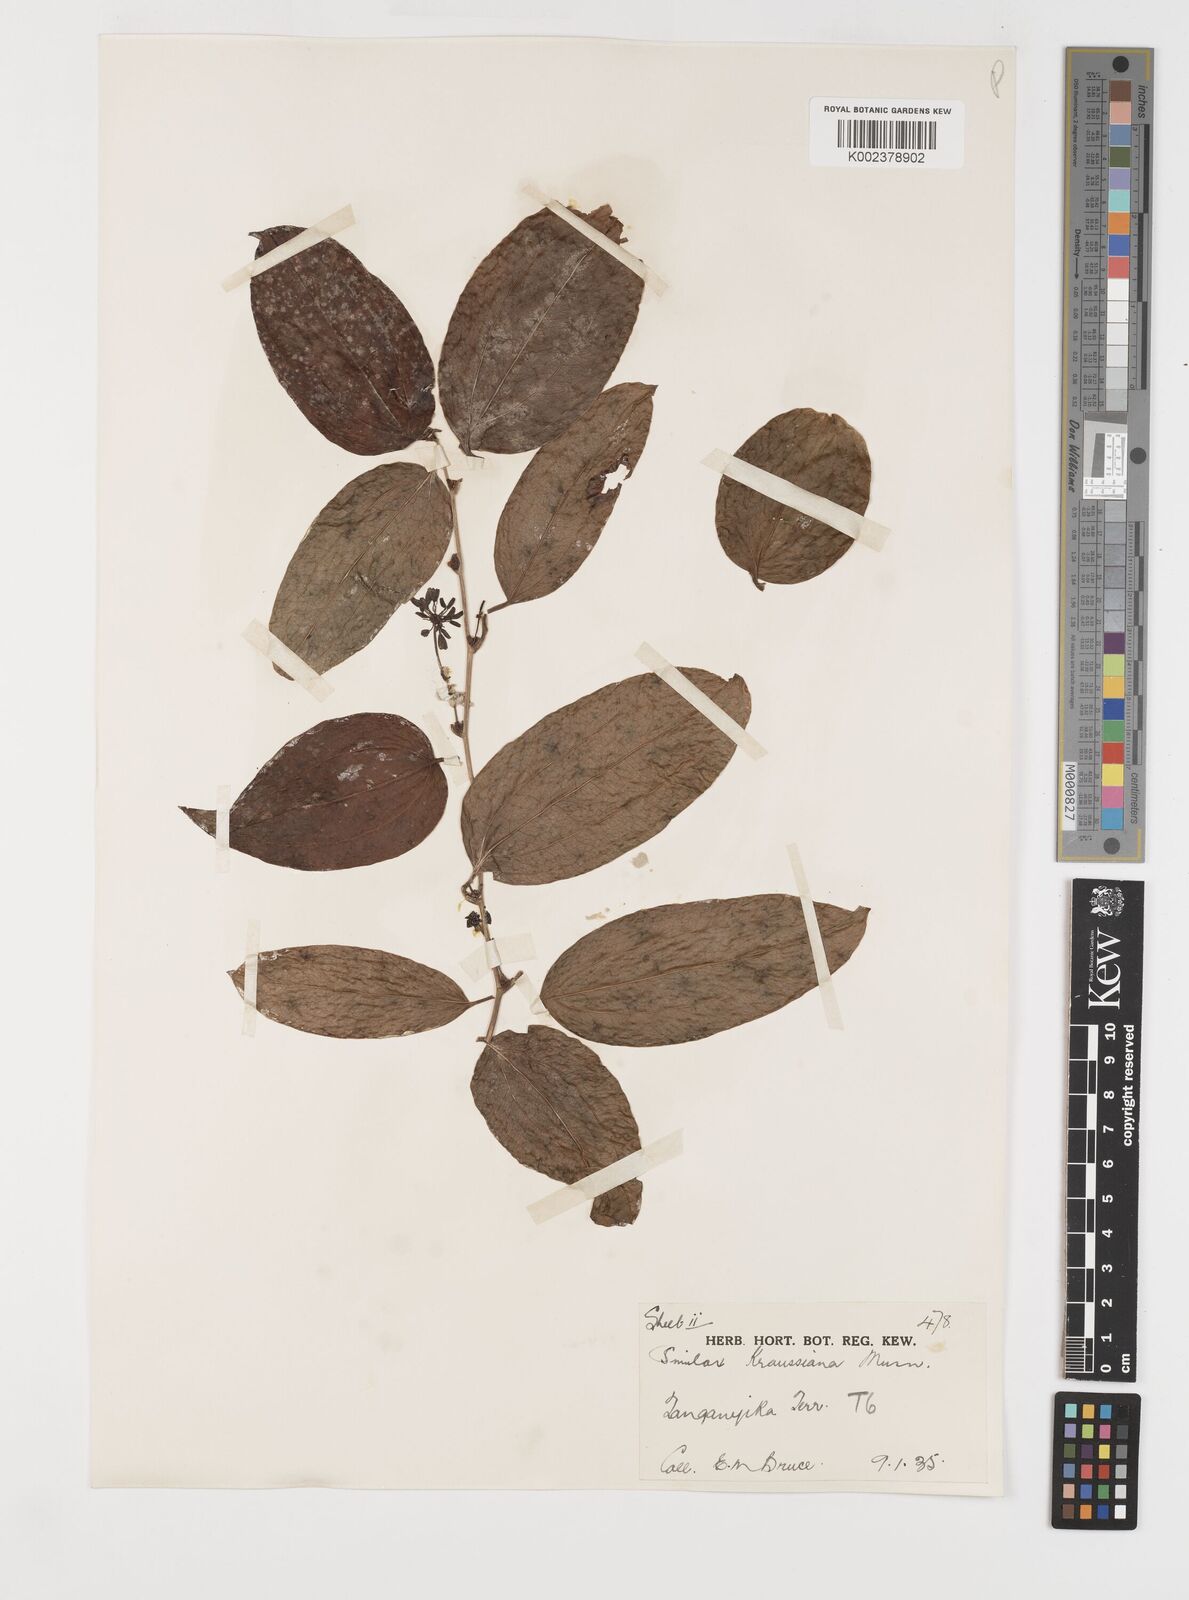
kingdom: Plantae
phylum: Tracheophyta
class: Liliopsida
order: Liliales
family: Smilacaceae
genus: Smilax
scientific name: Smilax anceps
